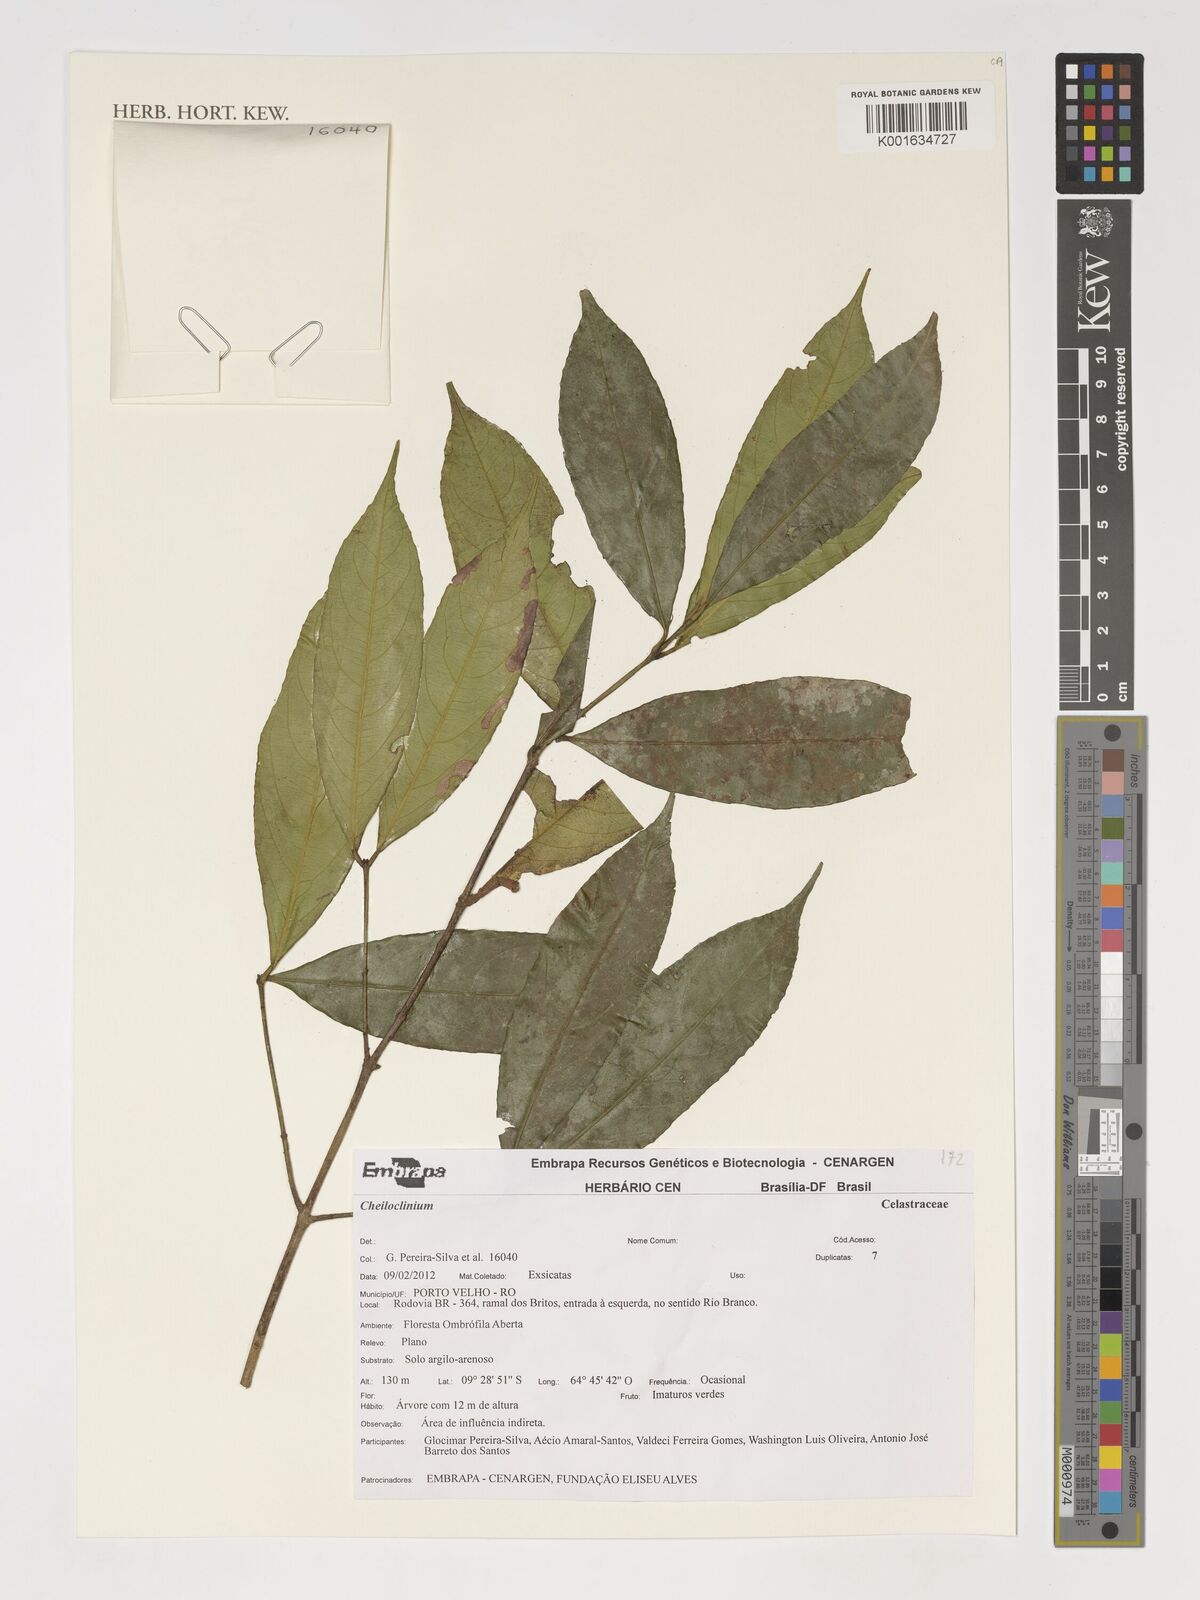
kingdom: Plantae
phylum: Tracheophyta
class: Magnoliopsida
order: Celastrales
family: Celastraceae
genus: Cheiloclinium
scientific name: Cheiloclinium
